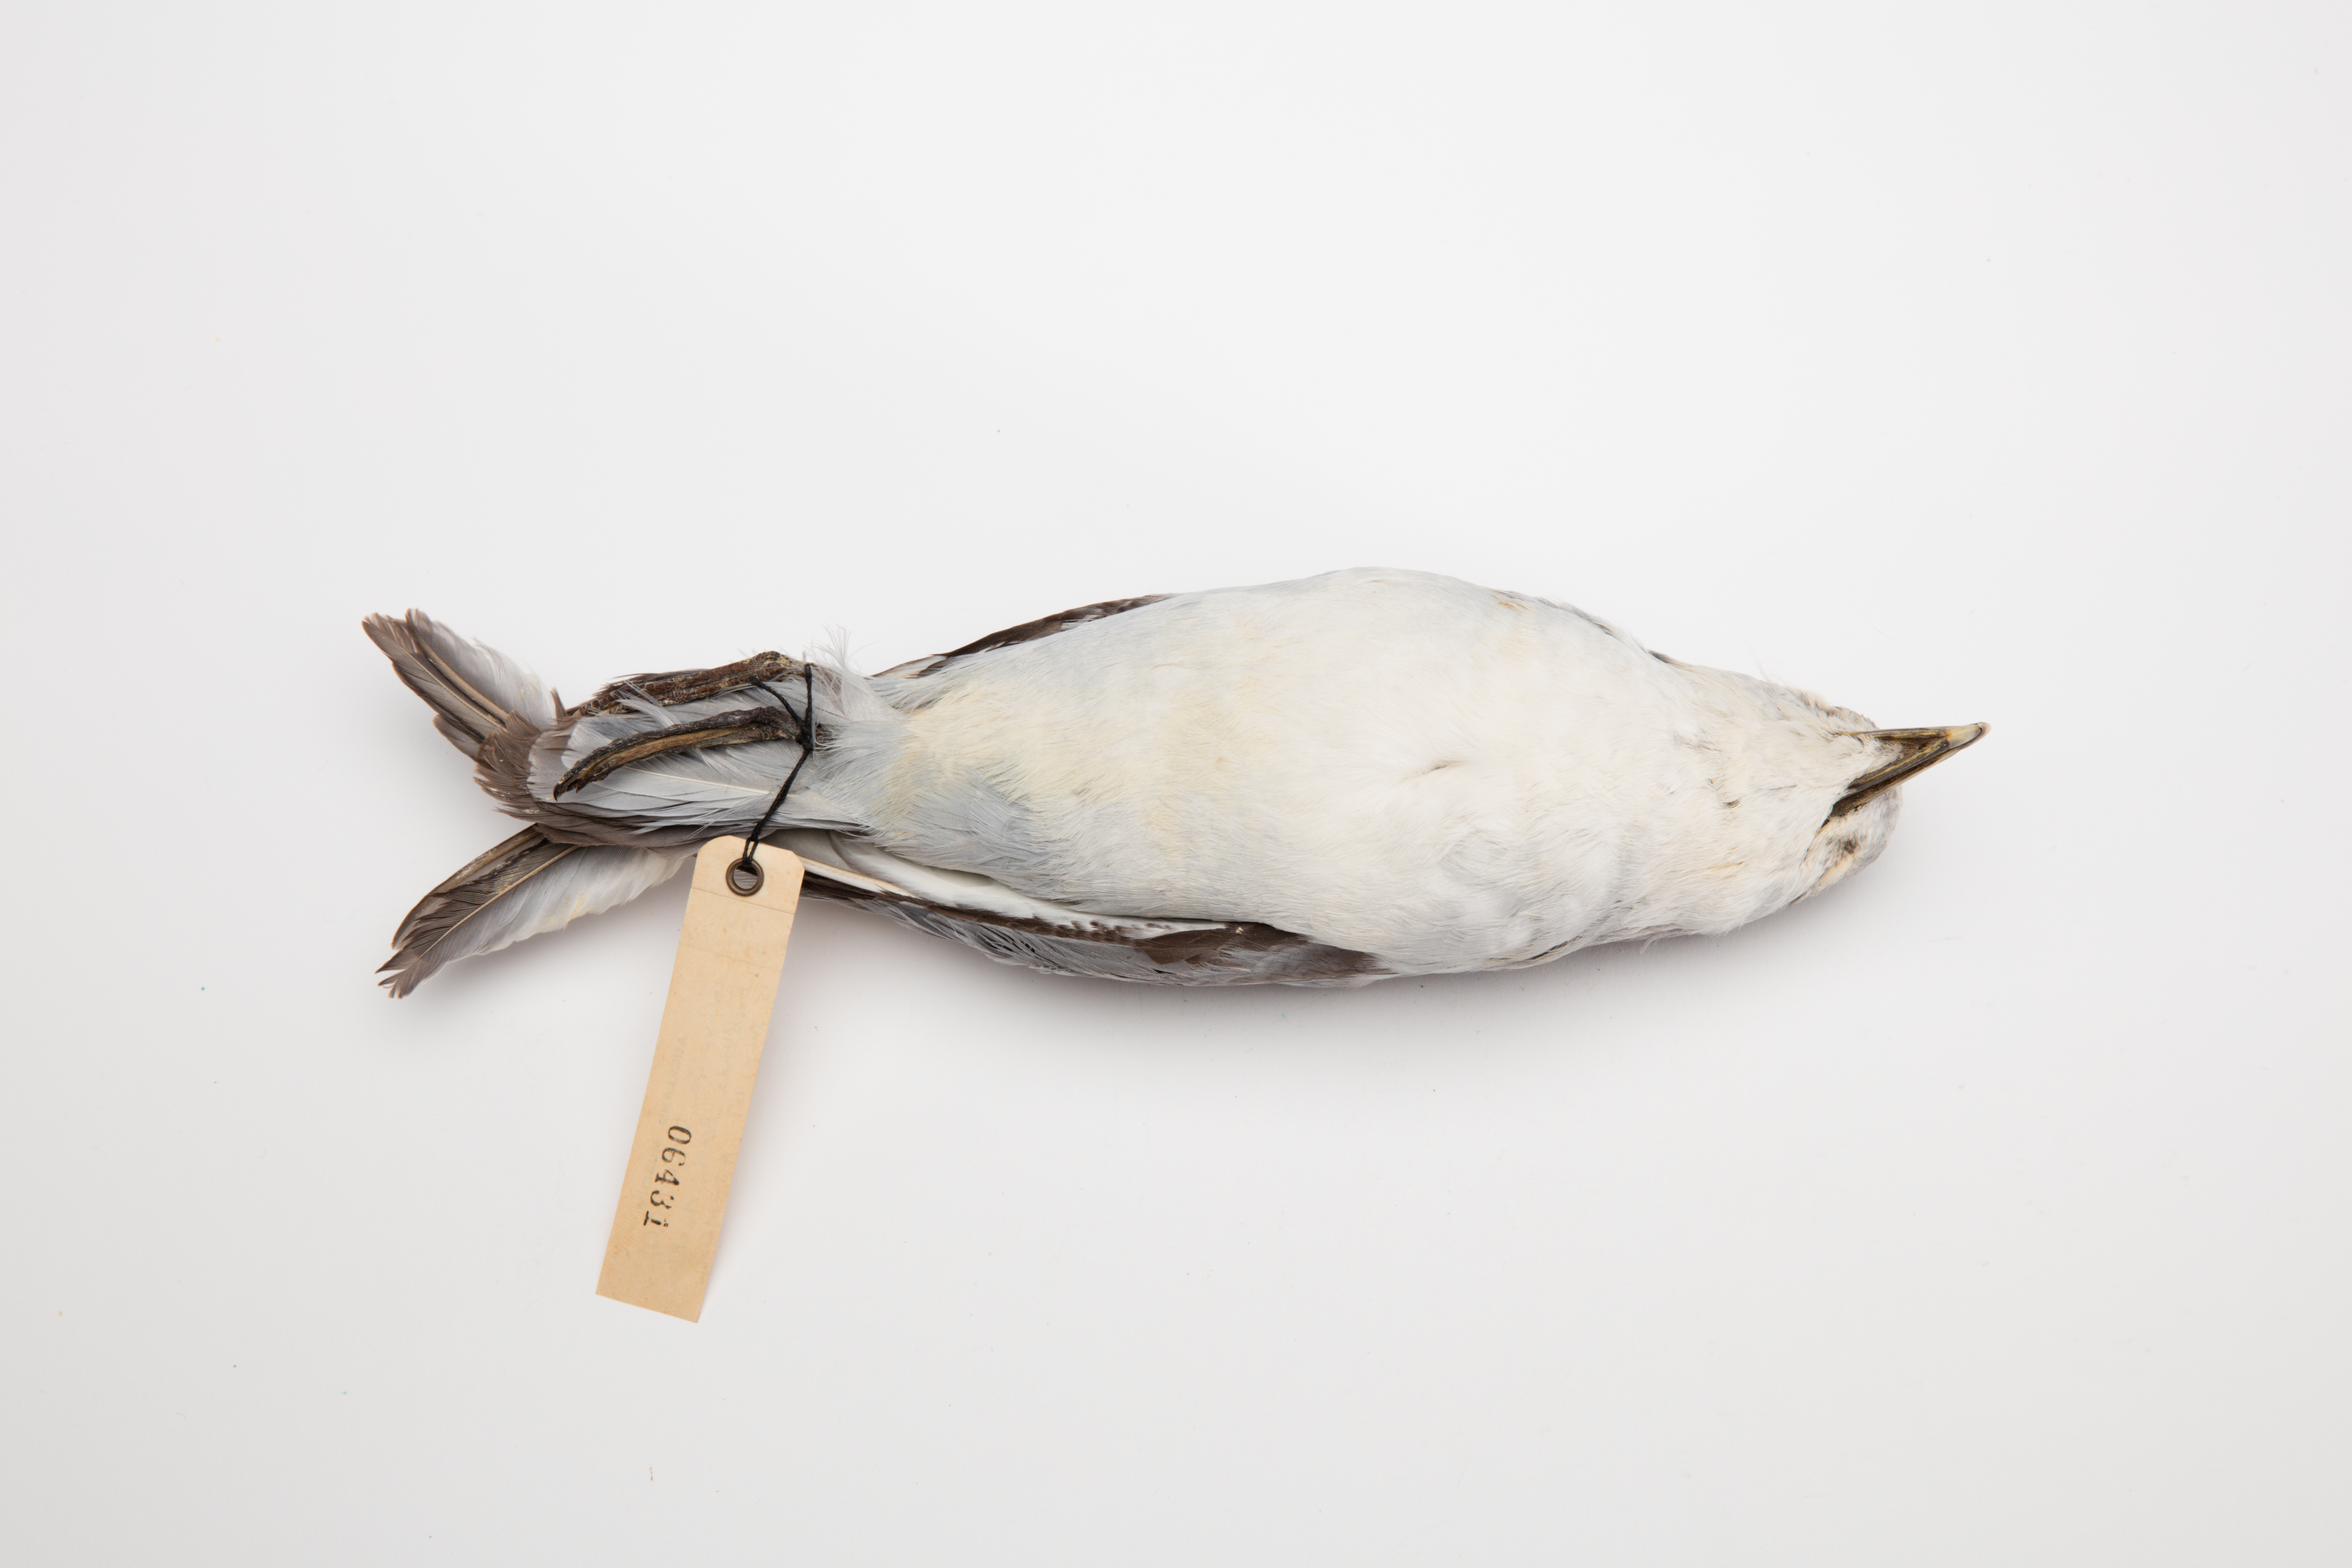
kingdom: Animalia
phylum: Chordata
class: Aves
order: Procellariiformes
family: Procellariidae
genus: Pachyptila
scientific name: Pachyptila turtur
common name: Fairy prion
